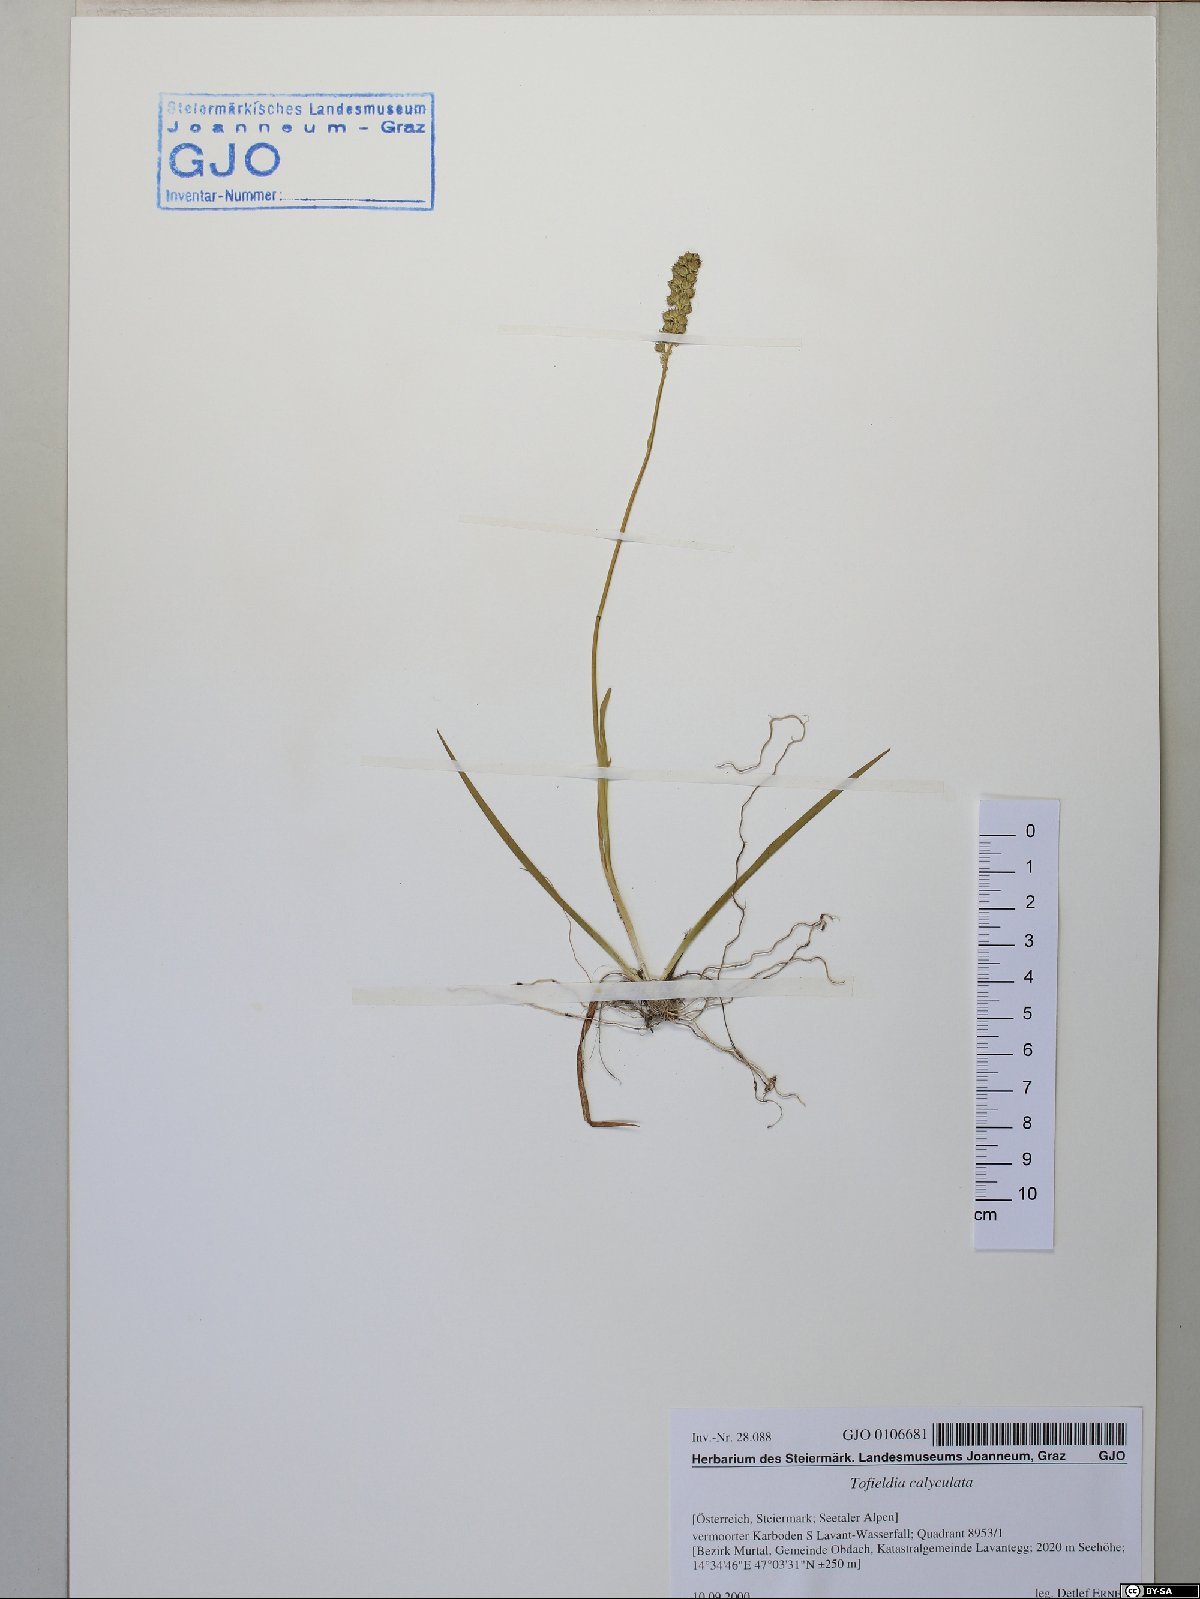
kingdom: Plantae
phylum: Tracheophyta
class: Liliopsida
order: Alismatales
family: Tofieldiaceae
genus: Tofieldia
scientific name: Tofieldia calyculata
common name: German-asphodel
